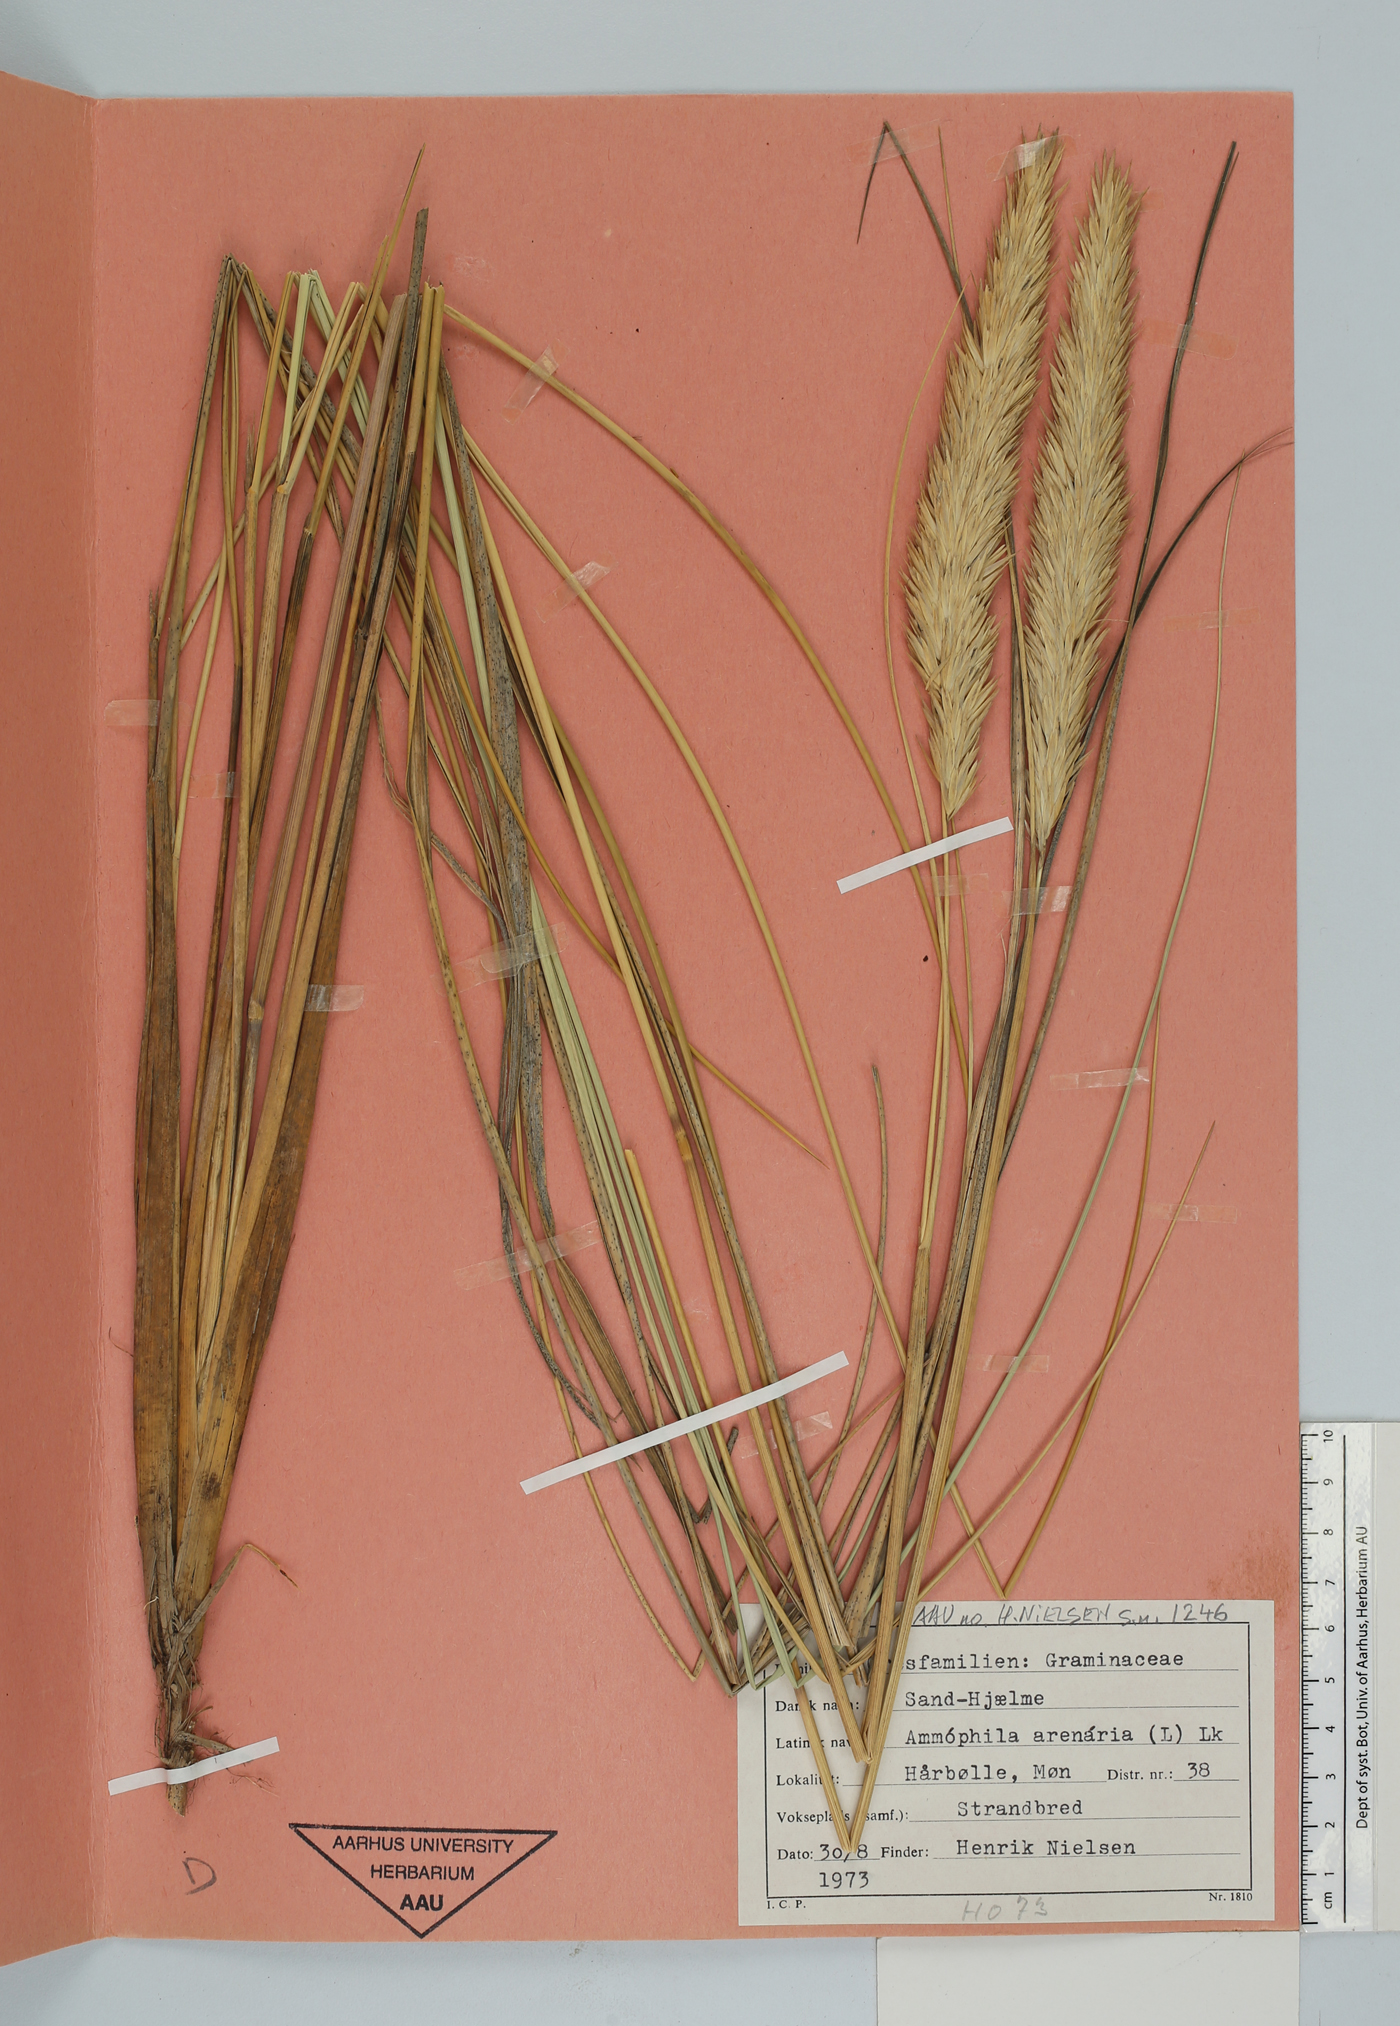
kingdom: Plantae
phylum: Tracheophyta
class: Liliopsida
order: Poales
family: Poaceae
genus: Calamagrostis
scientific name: Calamagrostis arenaria
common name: European beachgrass
